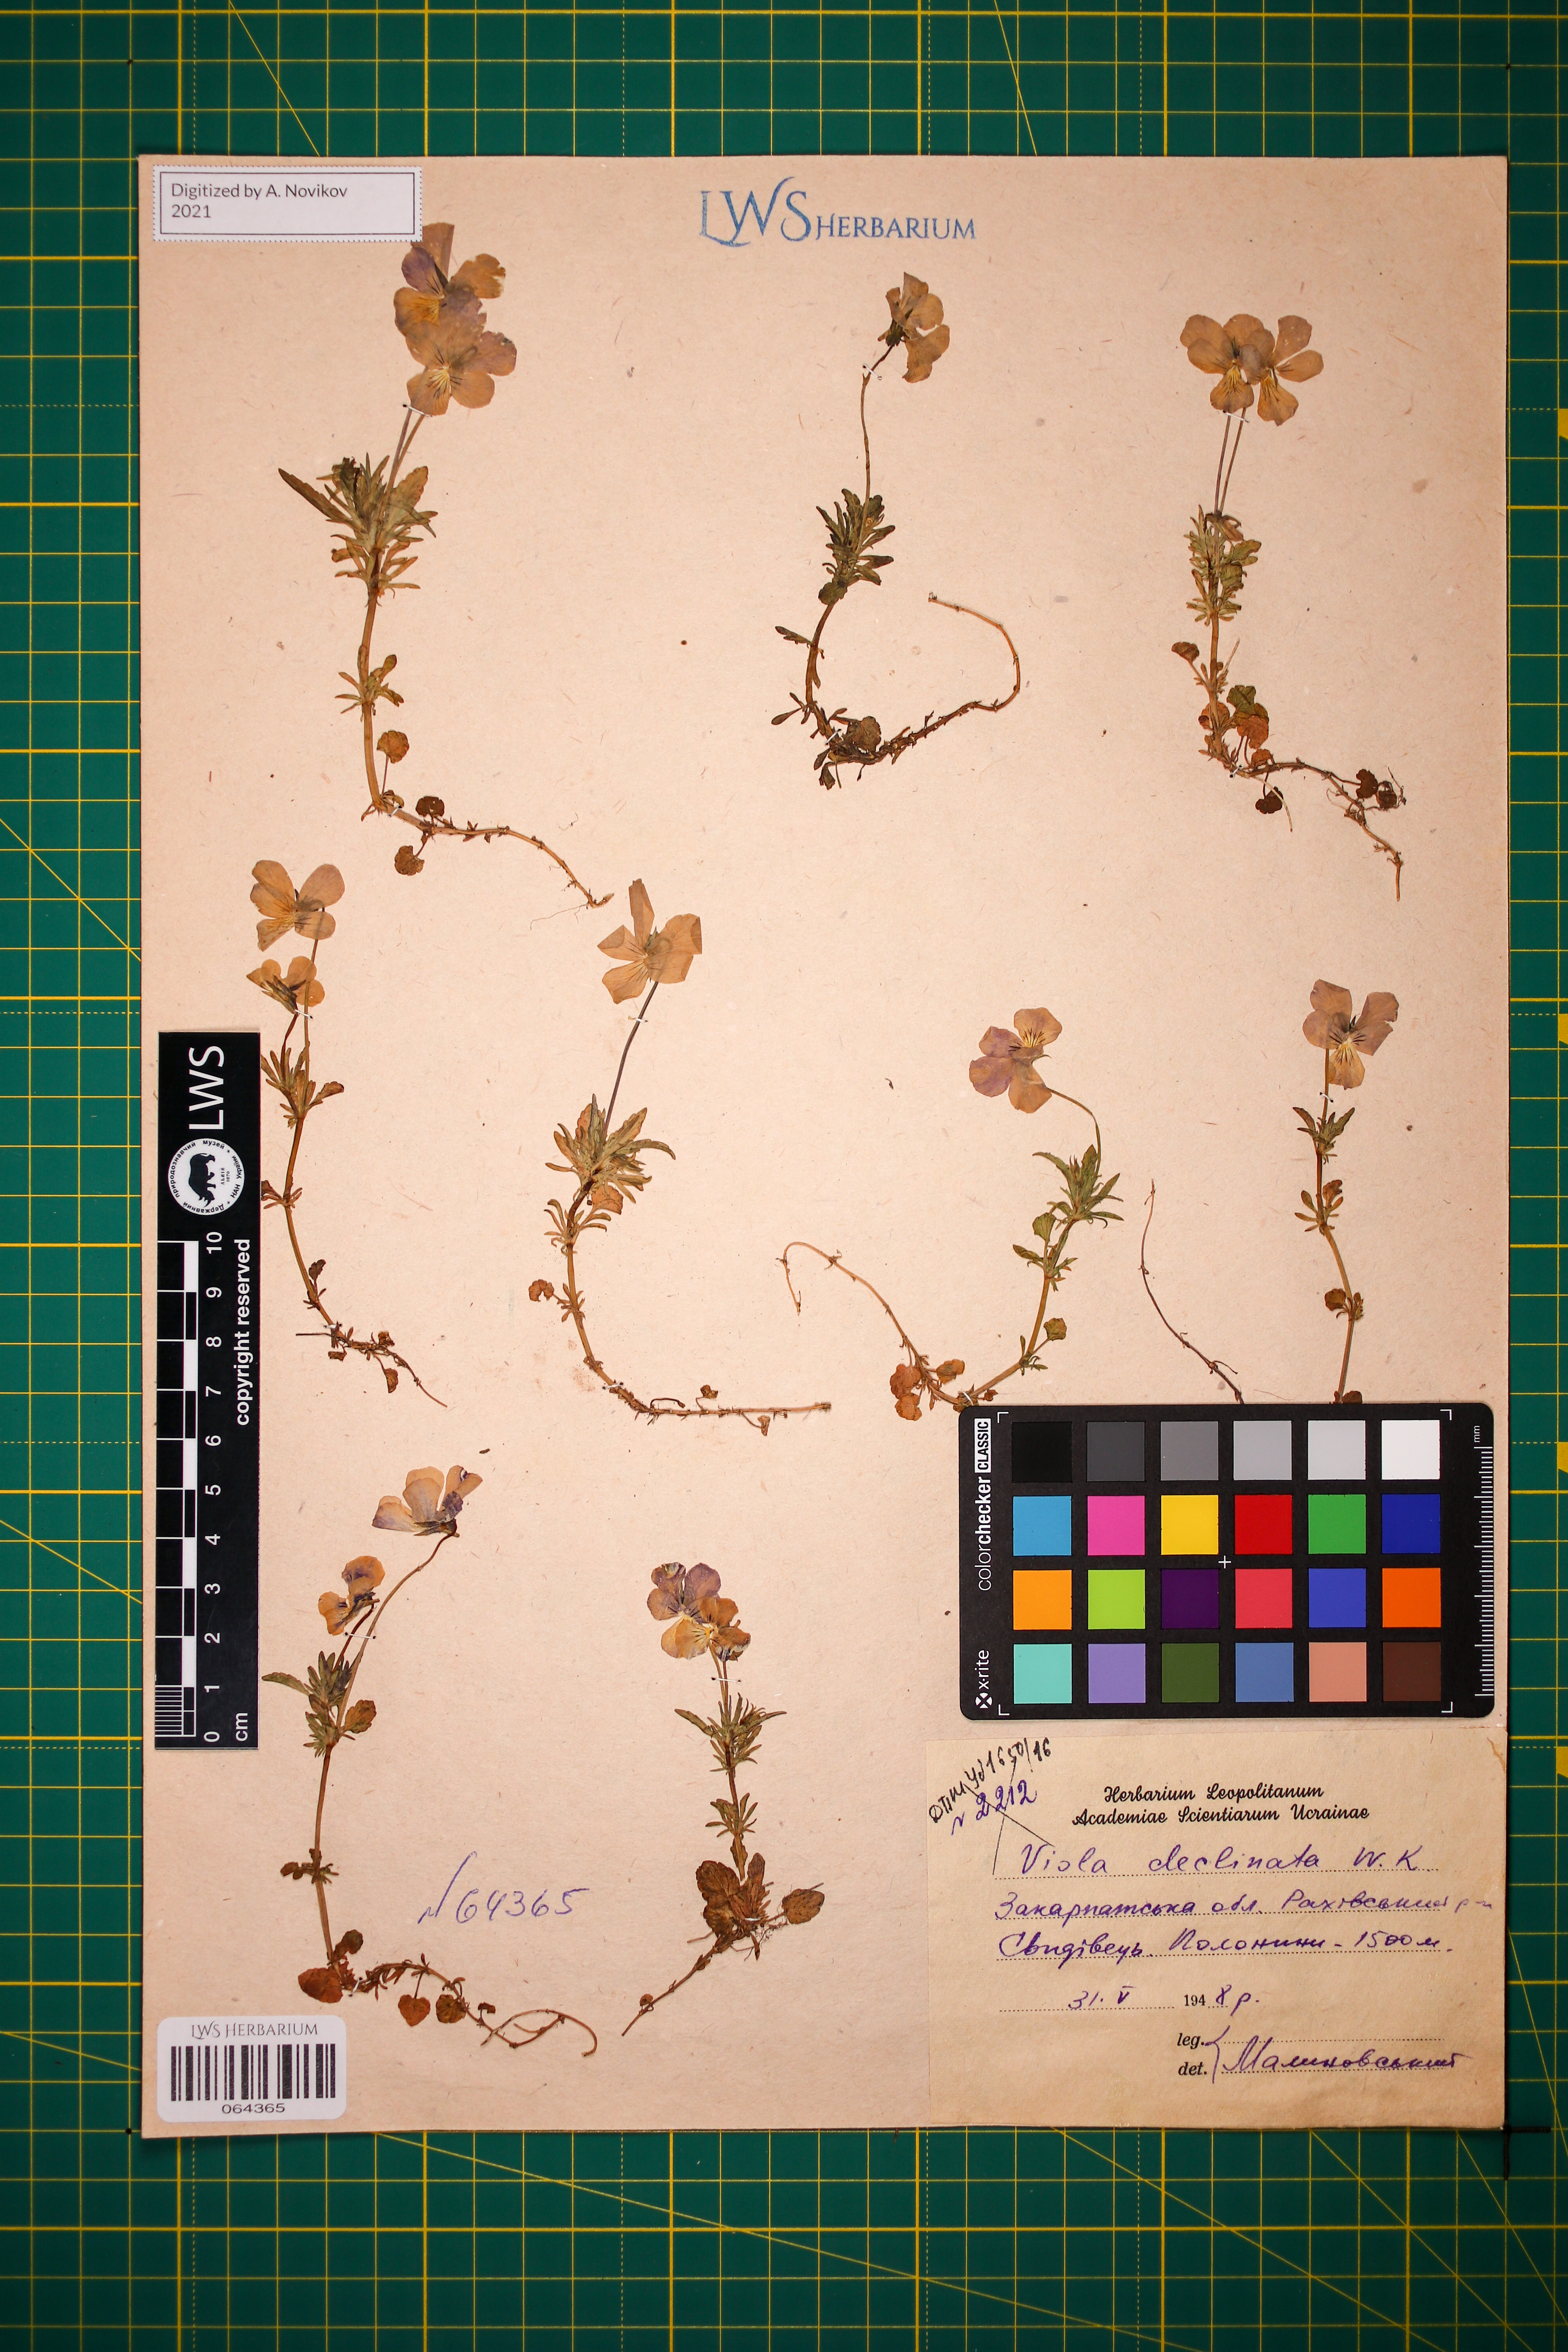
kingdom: Plantae
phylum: Tracheophyta
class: Magnoliopsida
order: Malpighiales
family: Violaceae
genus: Viola
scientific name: Viola declinata
